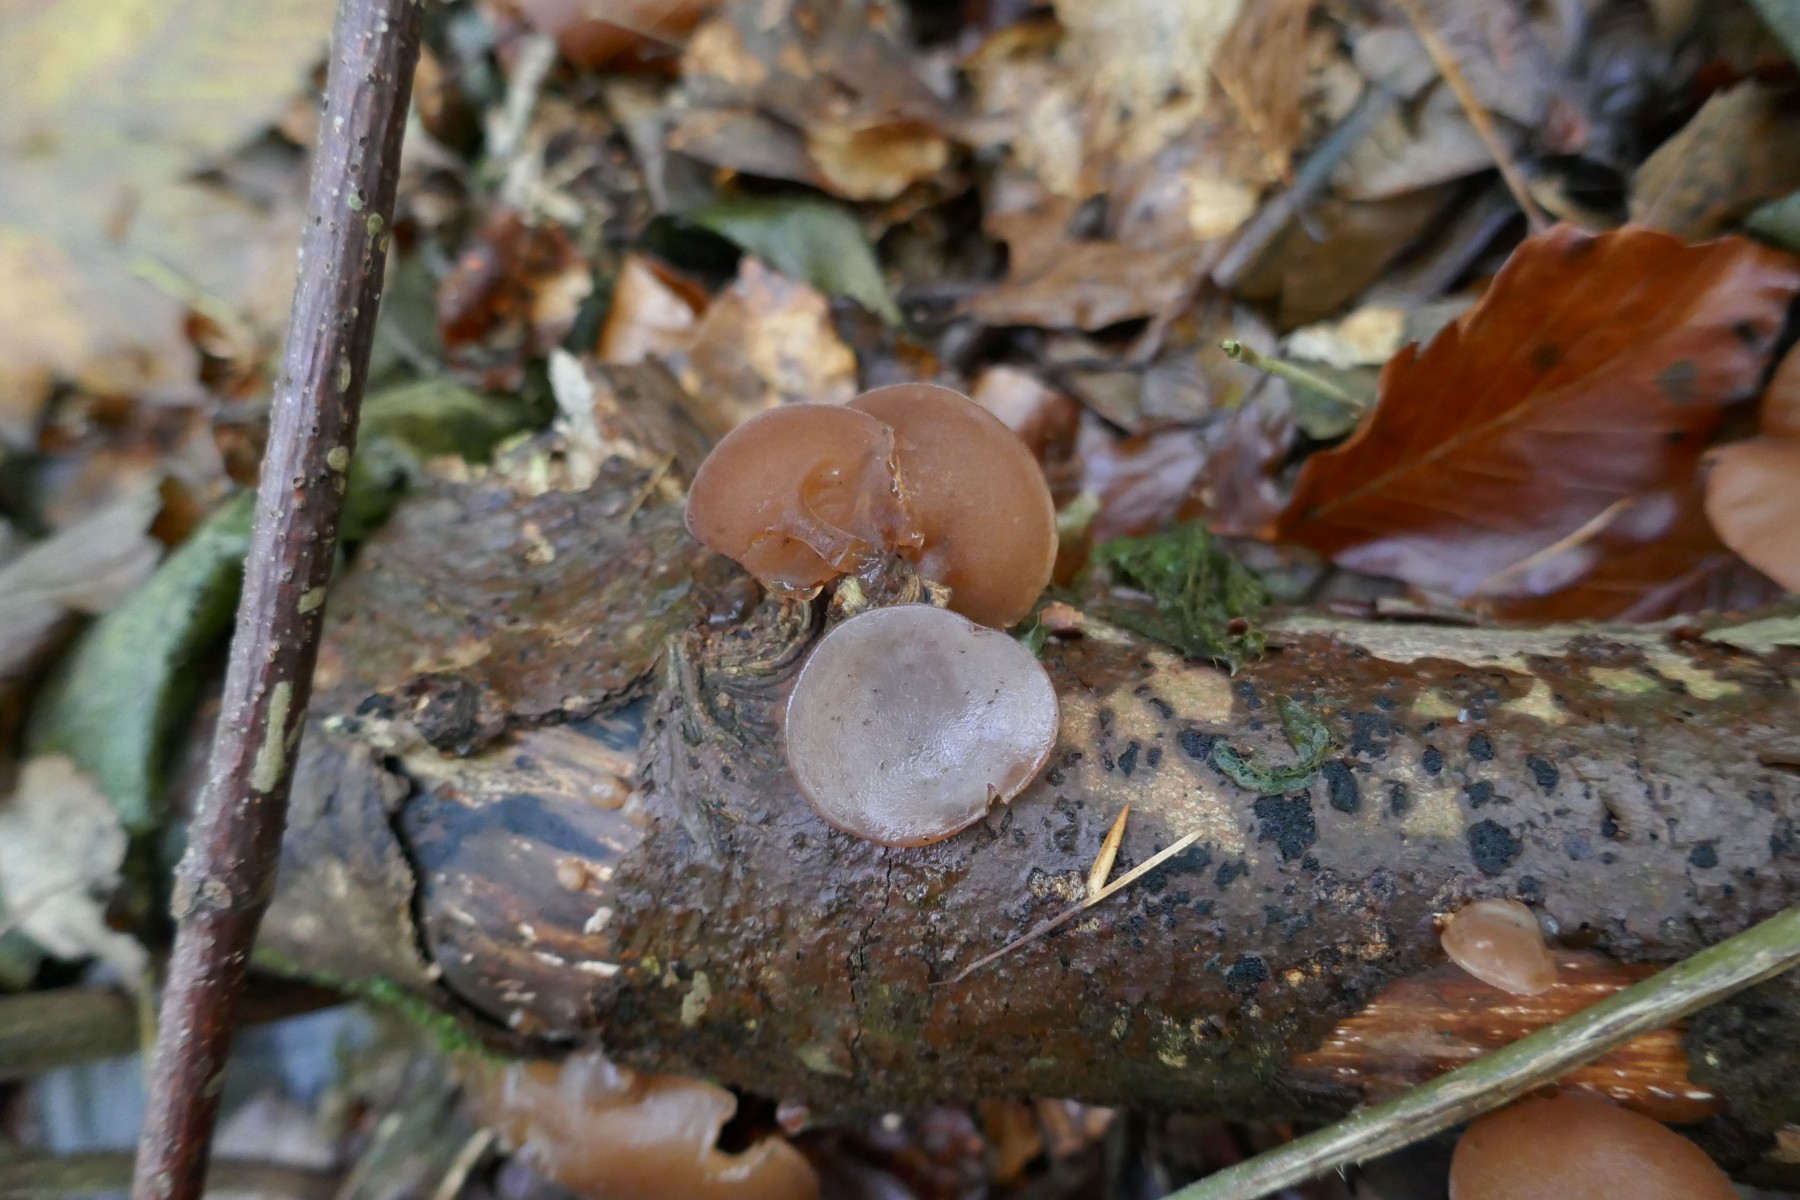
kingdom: Fungi
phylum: Basidiomycota
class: Agaricomycetes
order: Auriculariales
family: Auriculariaceae
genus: Auricularia
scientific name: Auricularia auricula-judae
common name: almindelig judasøre
